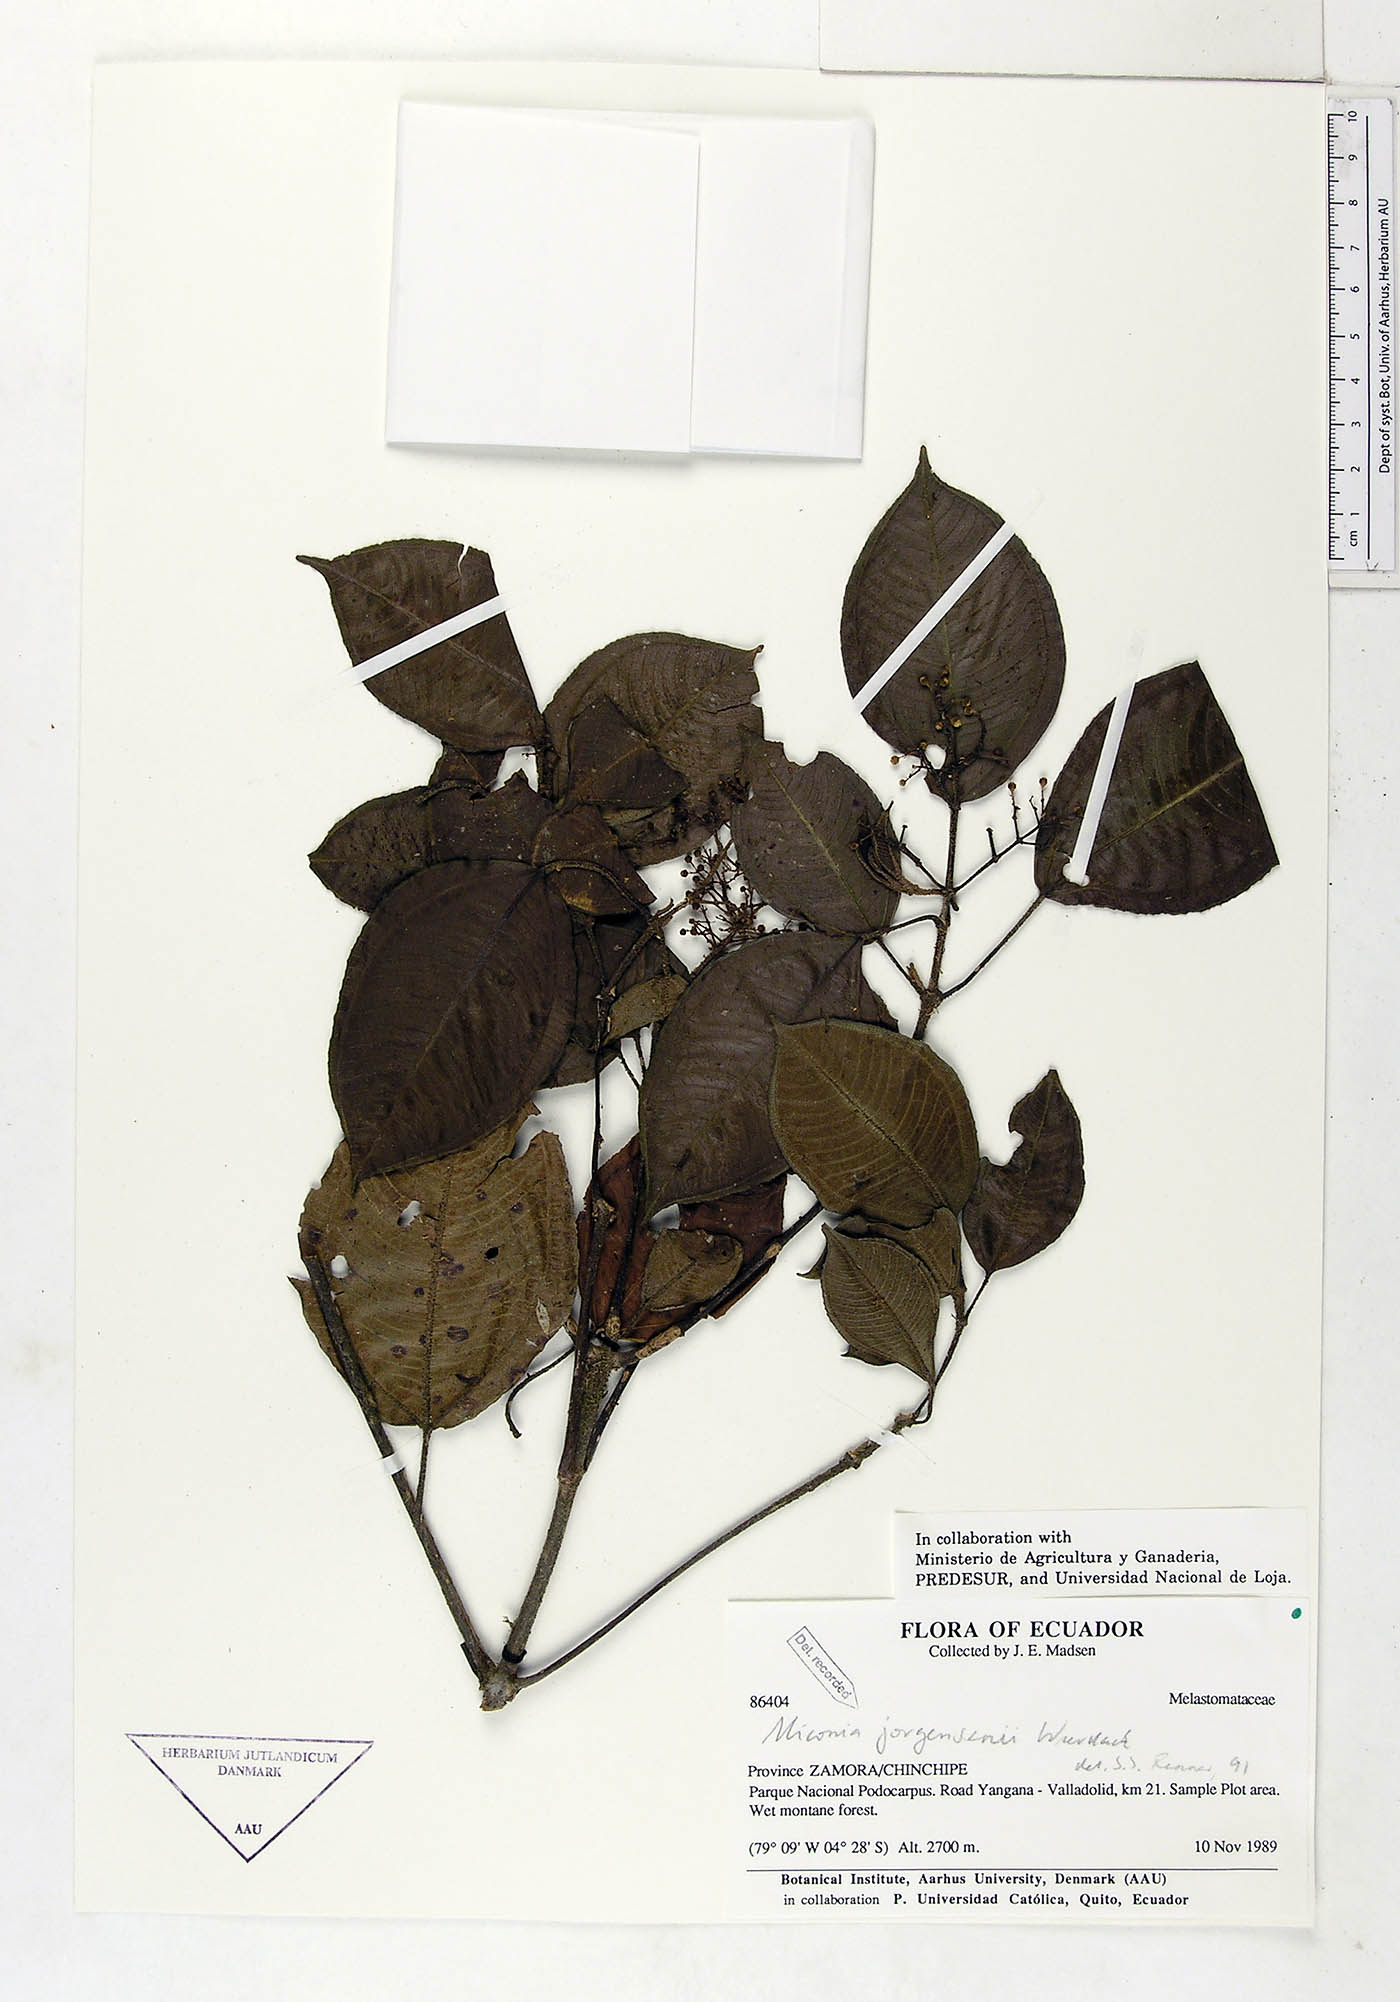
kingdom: Plantae
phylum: Tracheophyta
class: Magnoliopsida
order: Myrtales
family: Melastomataceae
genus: Miconia
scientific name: Miconia jorgensenii
